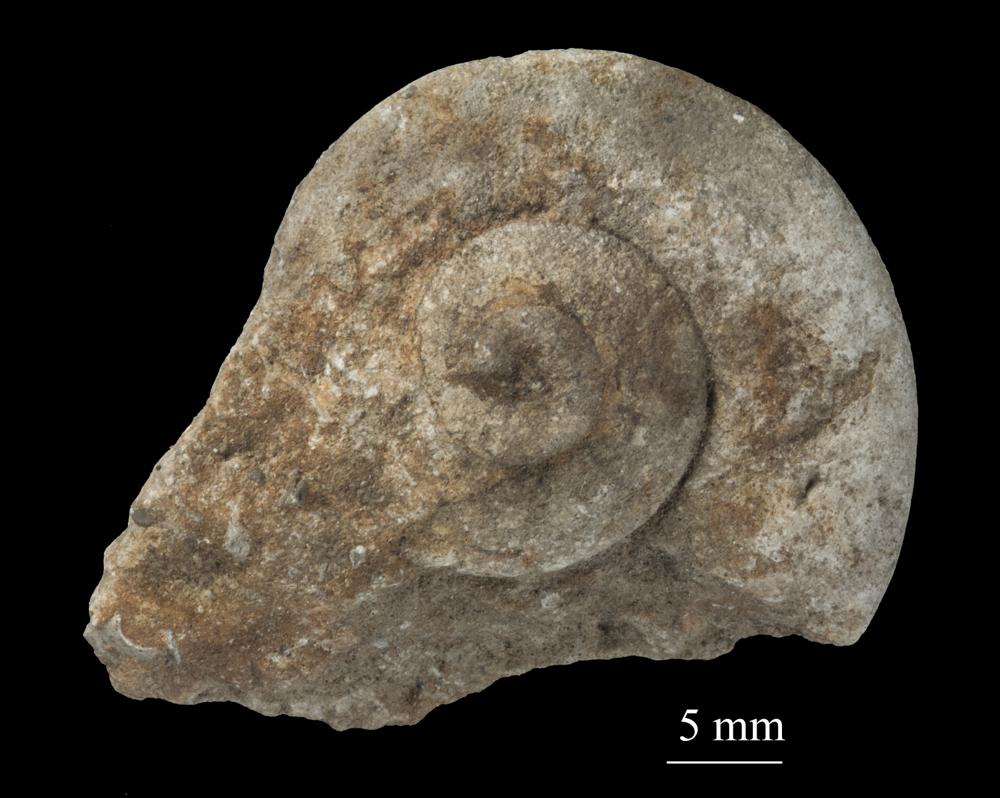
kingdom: Animalia
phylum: Mollusca
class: Gastropoda
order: Neogastropoda
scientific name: Neogastropoda
